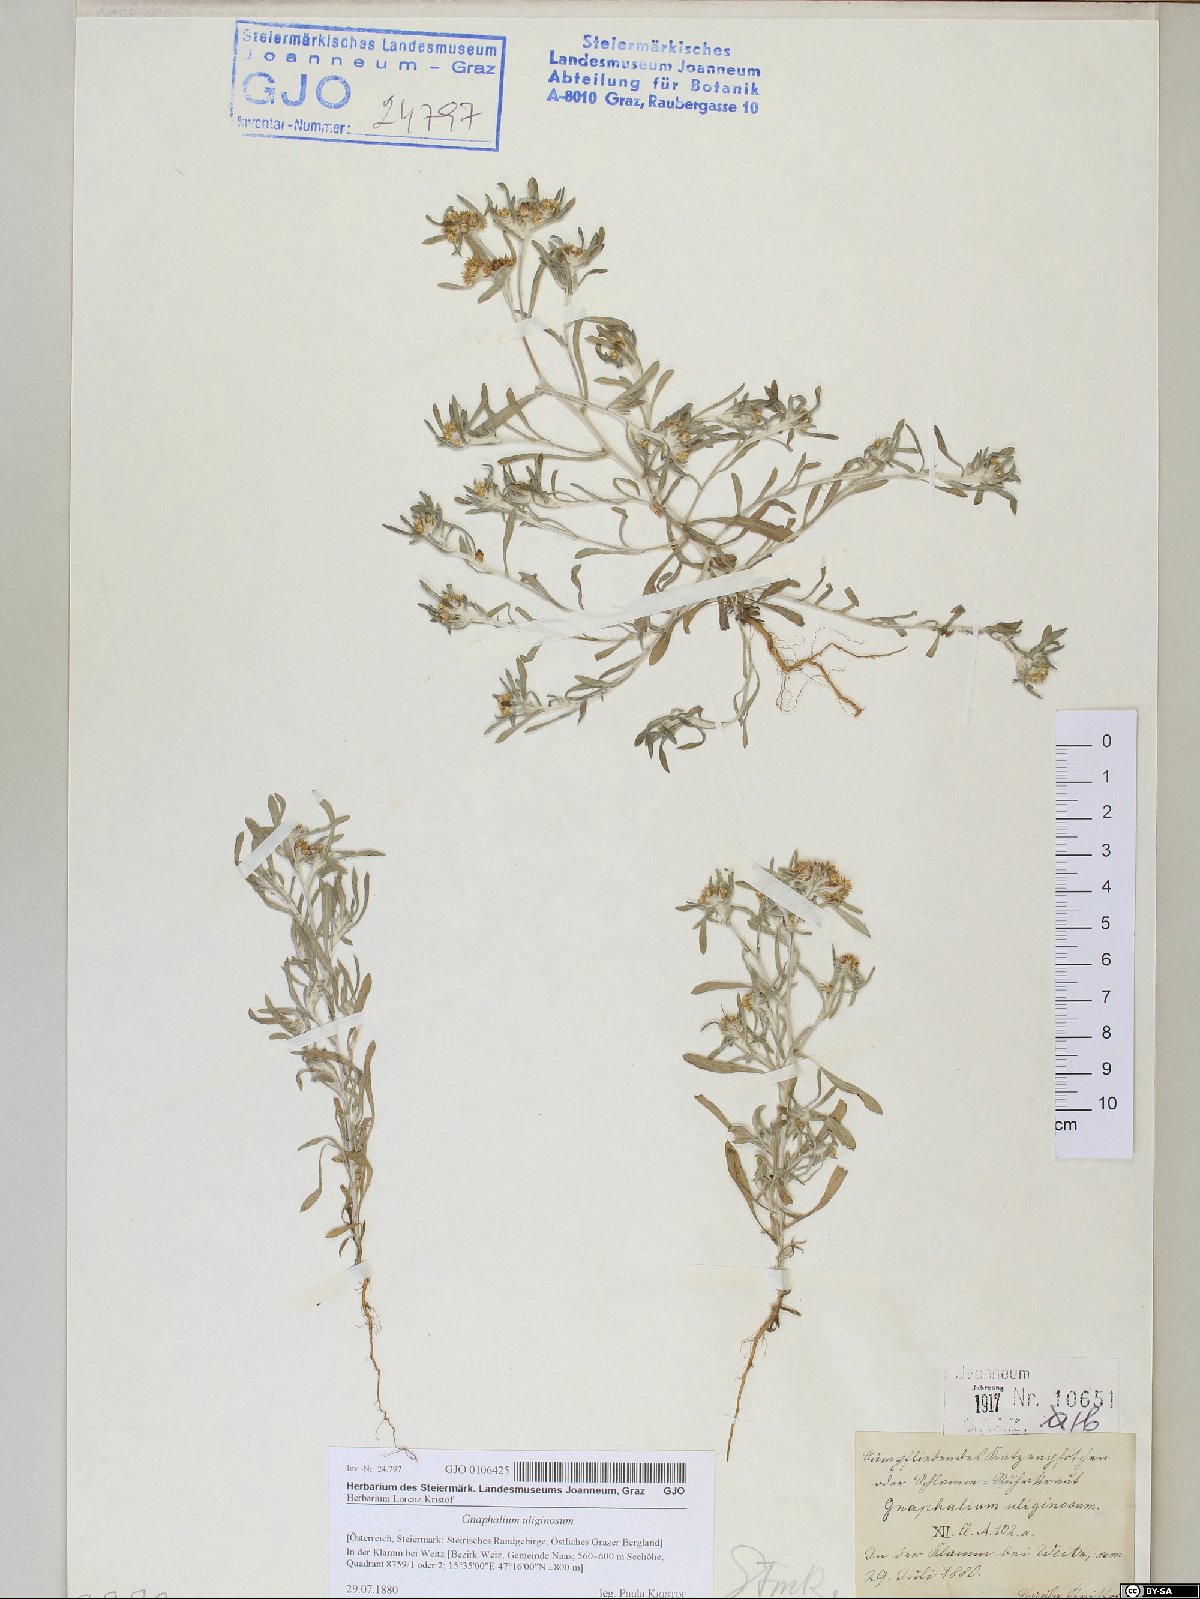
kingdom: Plantae
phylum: Tracheophyta
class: Magnoliopsida
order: Asterales
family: Asteraceae
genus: Gnaphalium
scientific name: Gnaphalium uliginosum
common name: Marsh cudweed
